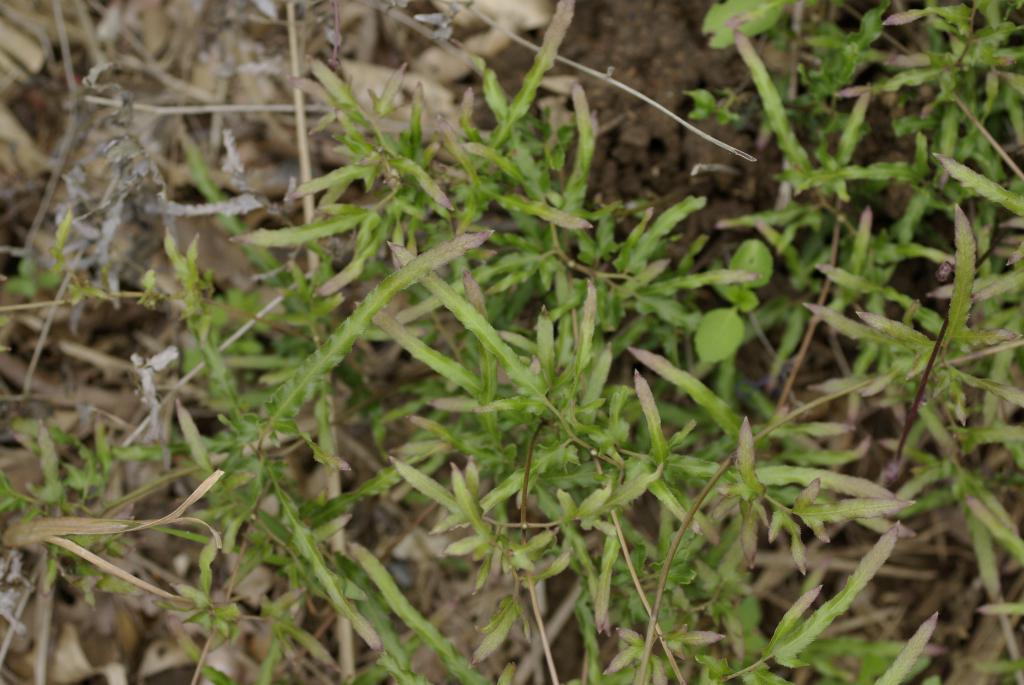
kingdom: Plantae
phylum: Tracheophyta
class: Polypodiopsida
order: Schizaeales
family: Lygodiaceae
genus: Lygodium
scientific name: Lygodium japonicum
